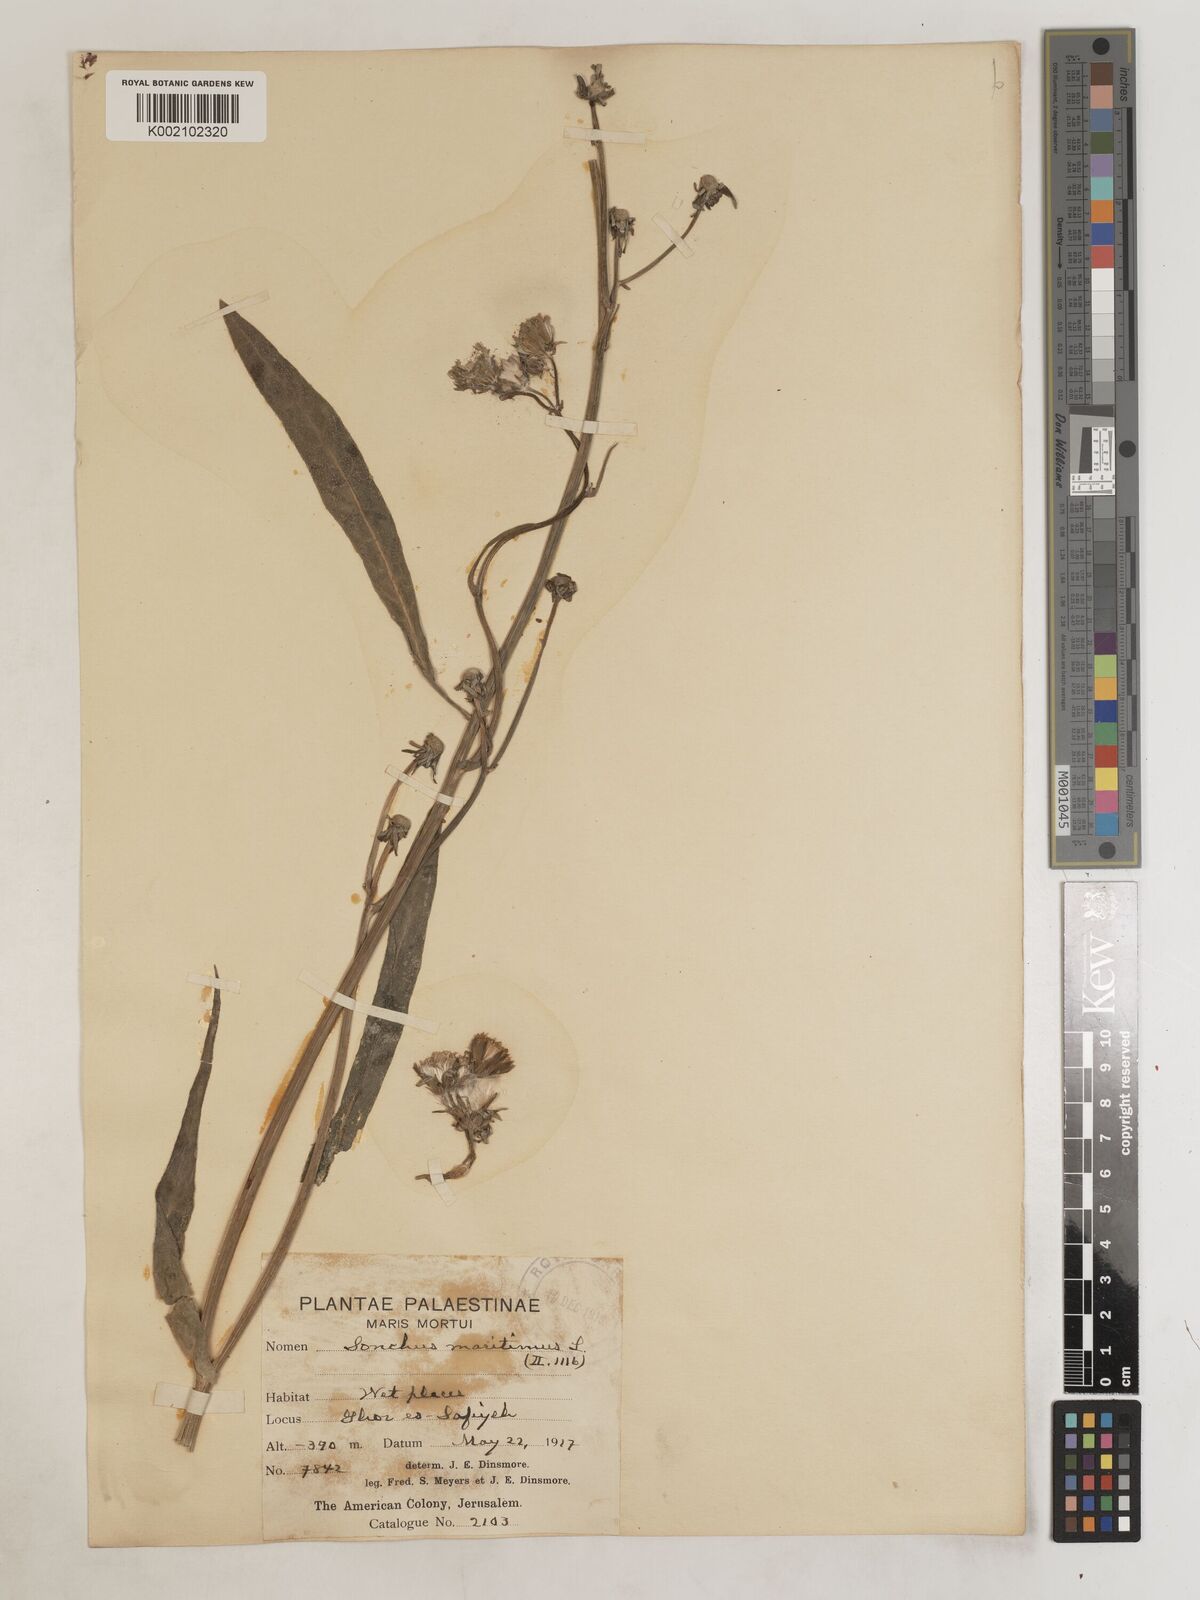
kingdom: Plantae
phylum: Tracheophyta
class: Magnoliopsida
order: Asterales
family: Asteraceae
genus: Sonchus
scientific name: Sonchus maritimus
